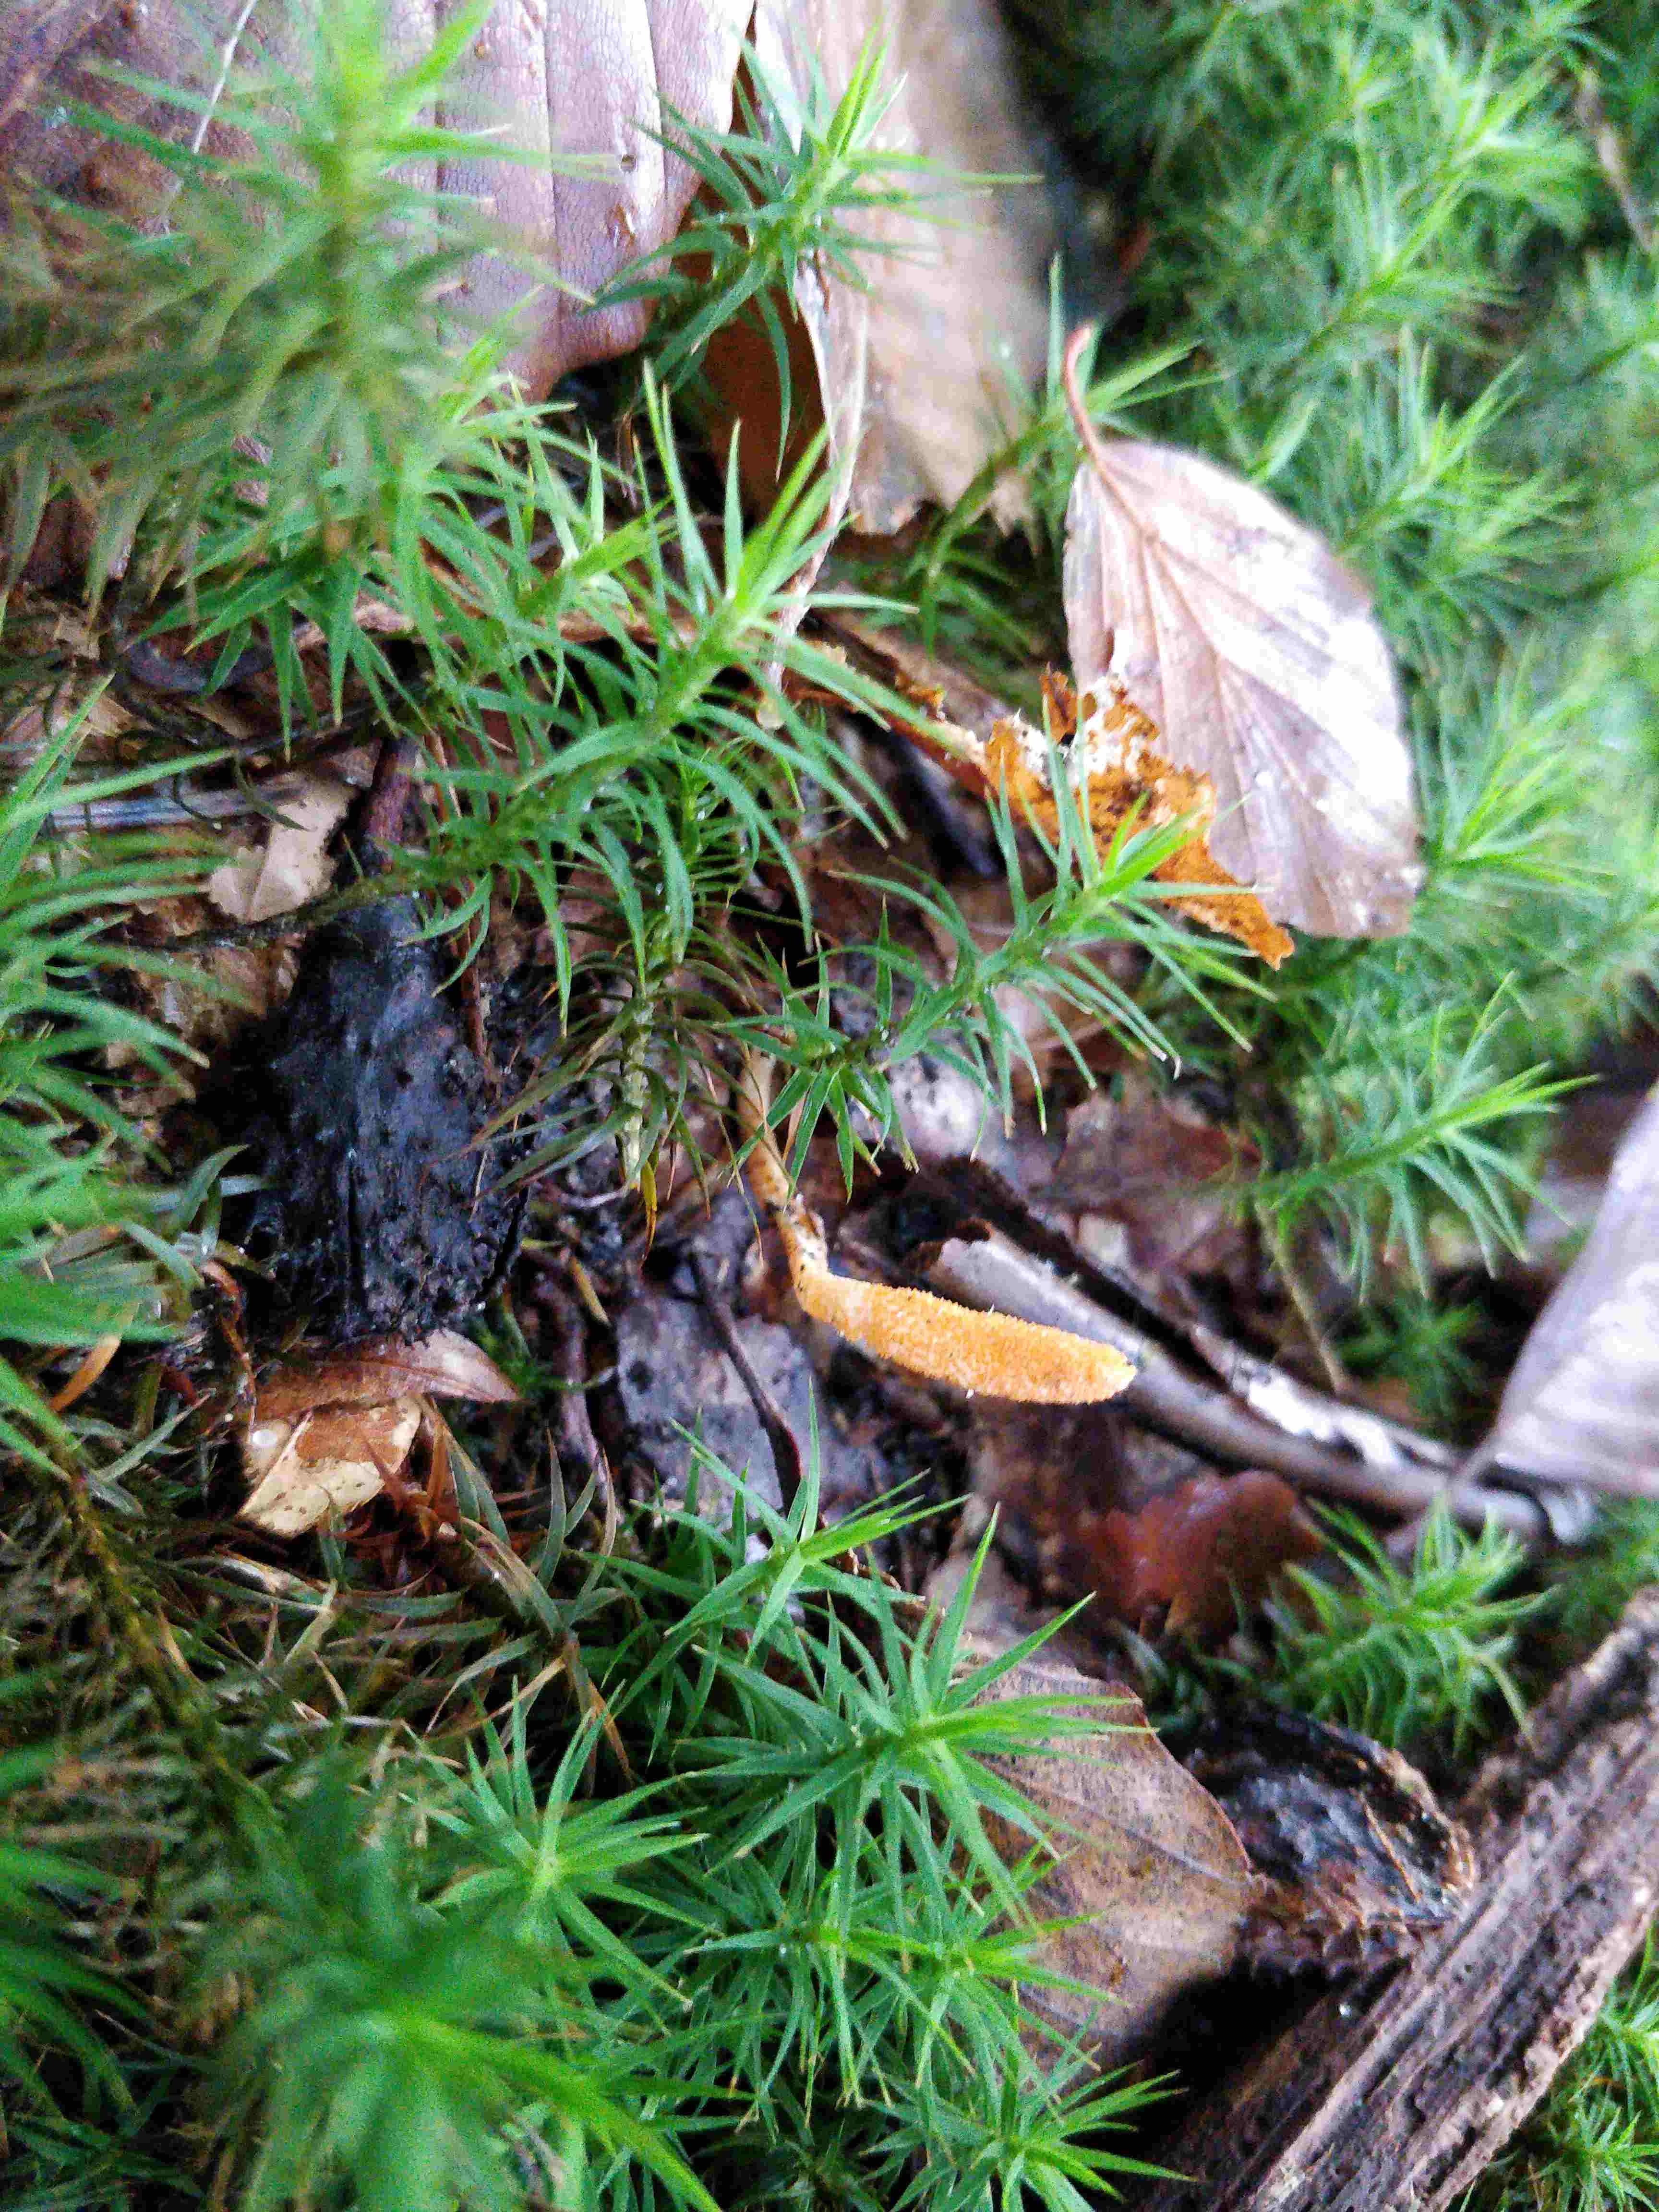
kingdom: Fungi
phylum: Ascomycota
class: Sordariomycetes
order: Hypocreales
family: Cordycipitaceae
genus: Cordyceps
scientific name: Cordyceps militaris
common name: puppe-snyltekølle
